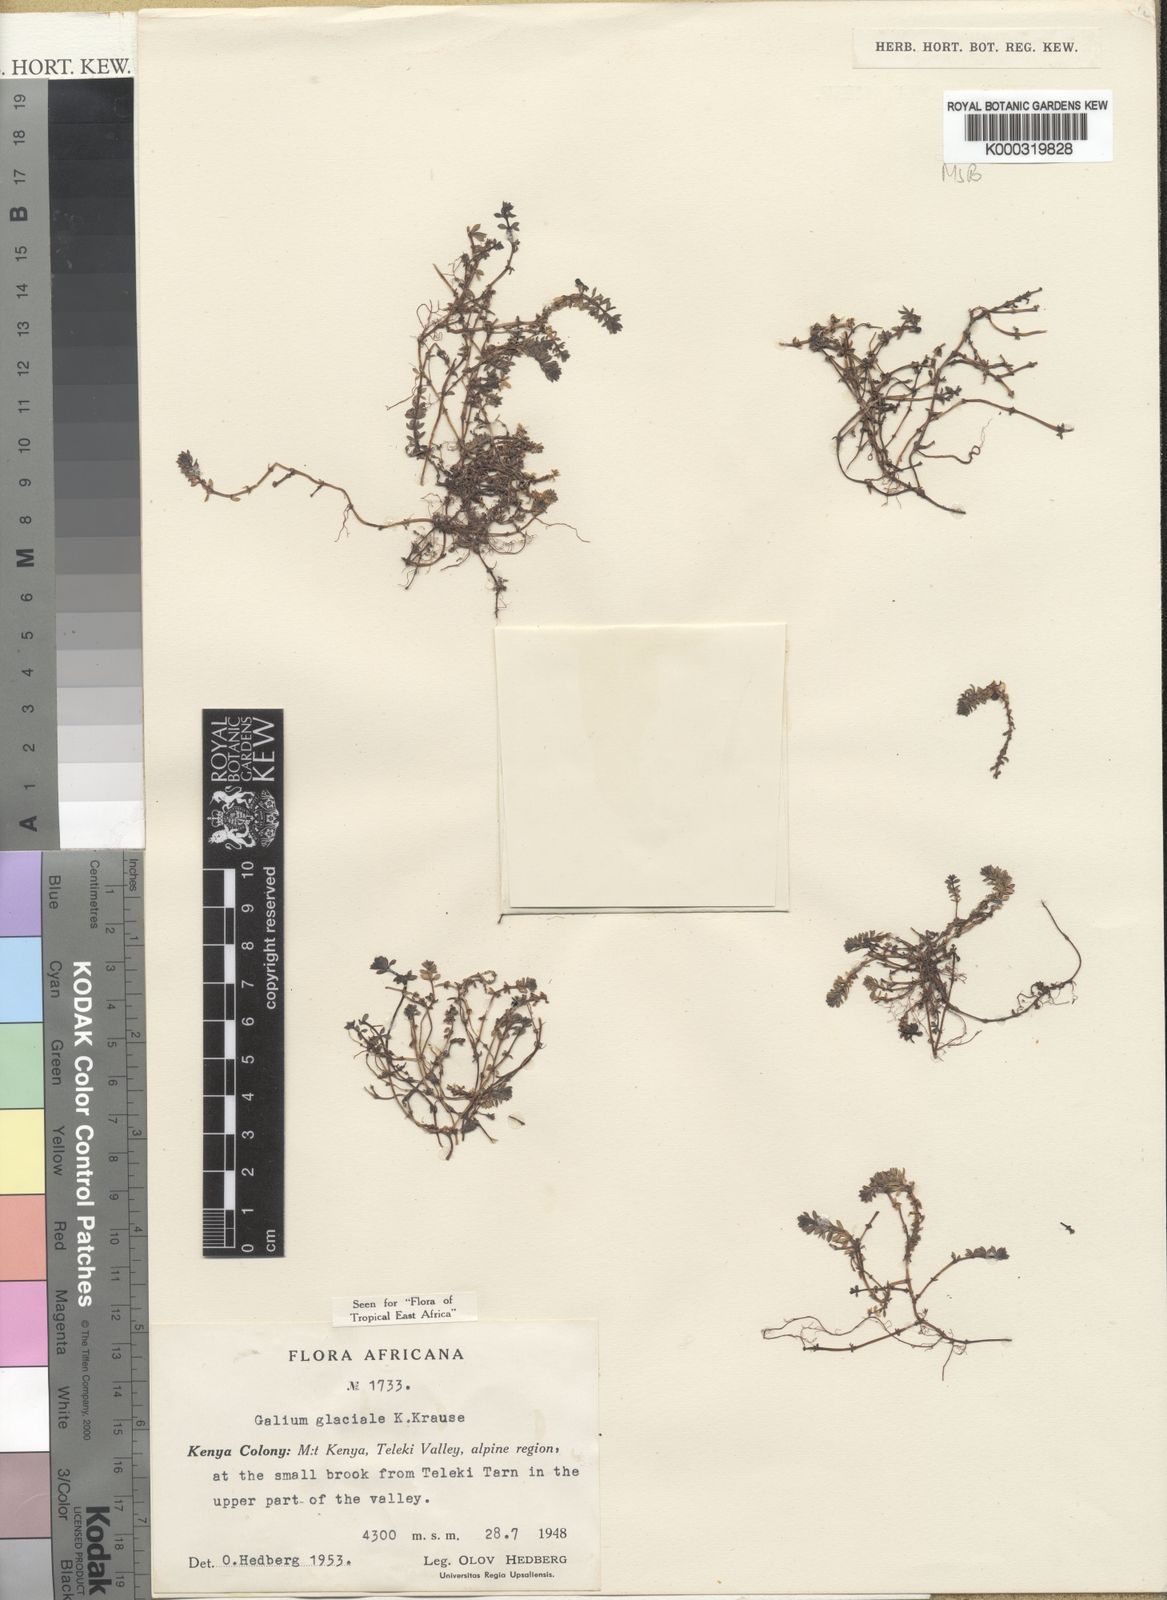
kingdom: Plantae
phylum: Tracheophyta
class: Magnoliopsida
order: Gentianales
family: Rubiaceae
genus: Galium
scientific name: Galium glaciale
